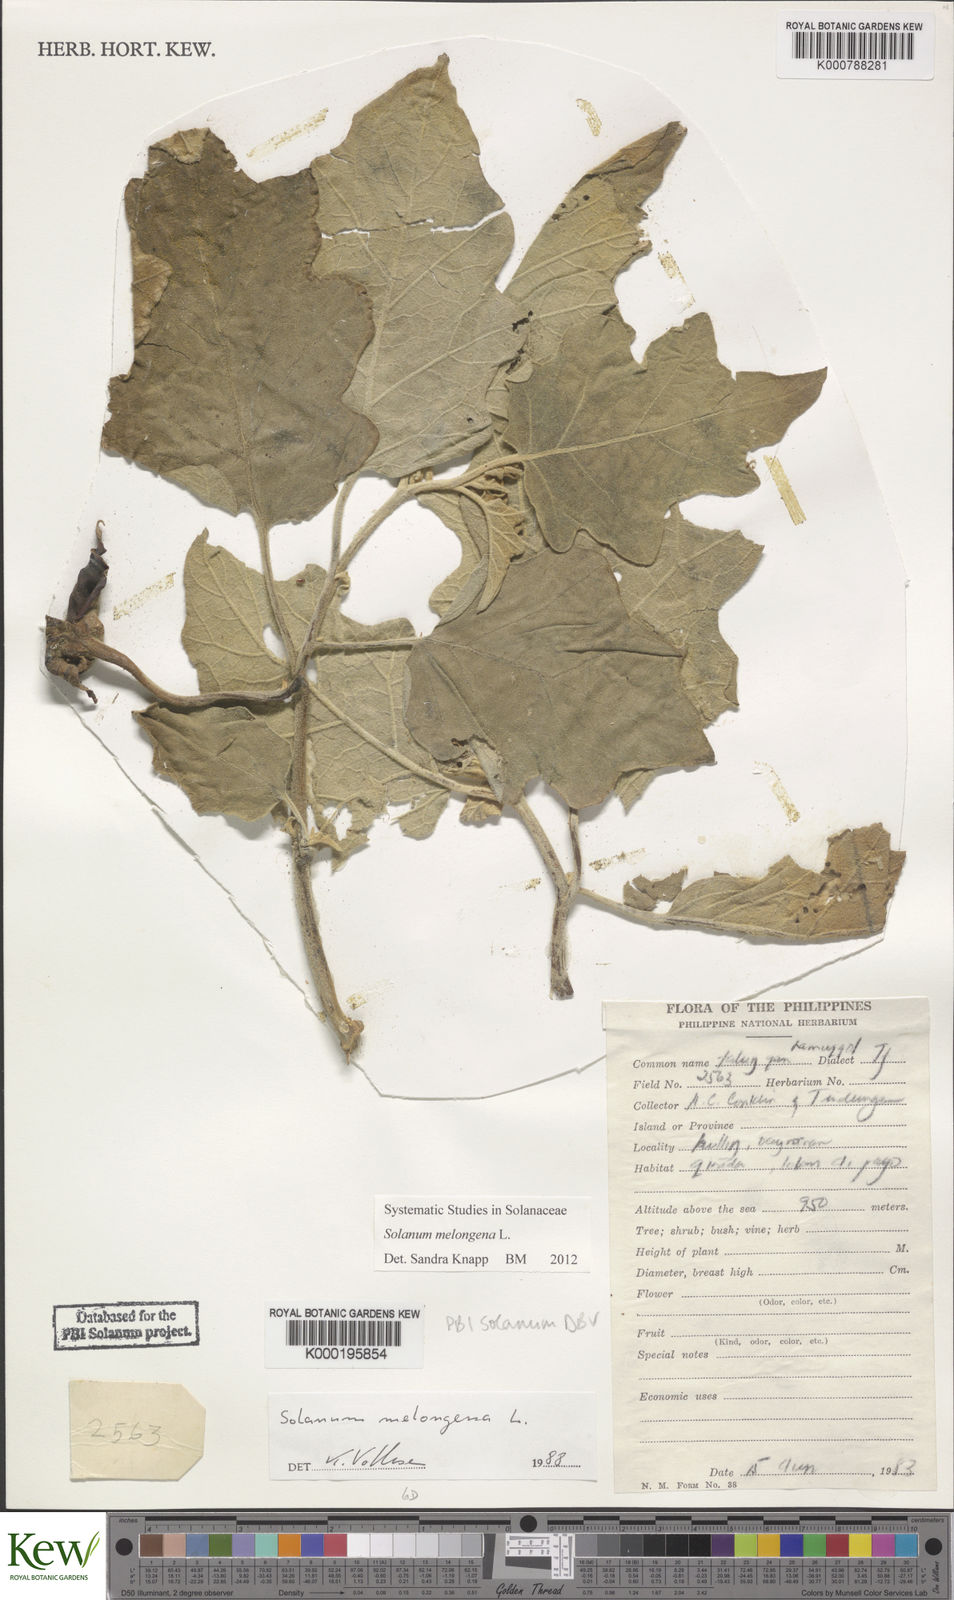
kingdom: Plantae
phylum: Tracheophyta
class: Magnoliopsida
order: Solanales
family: Solanaceae
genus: Solanum
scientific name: Solanum melongena
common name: Eggplant
